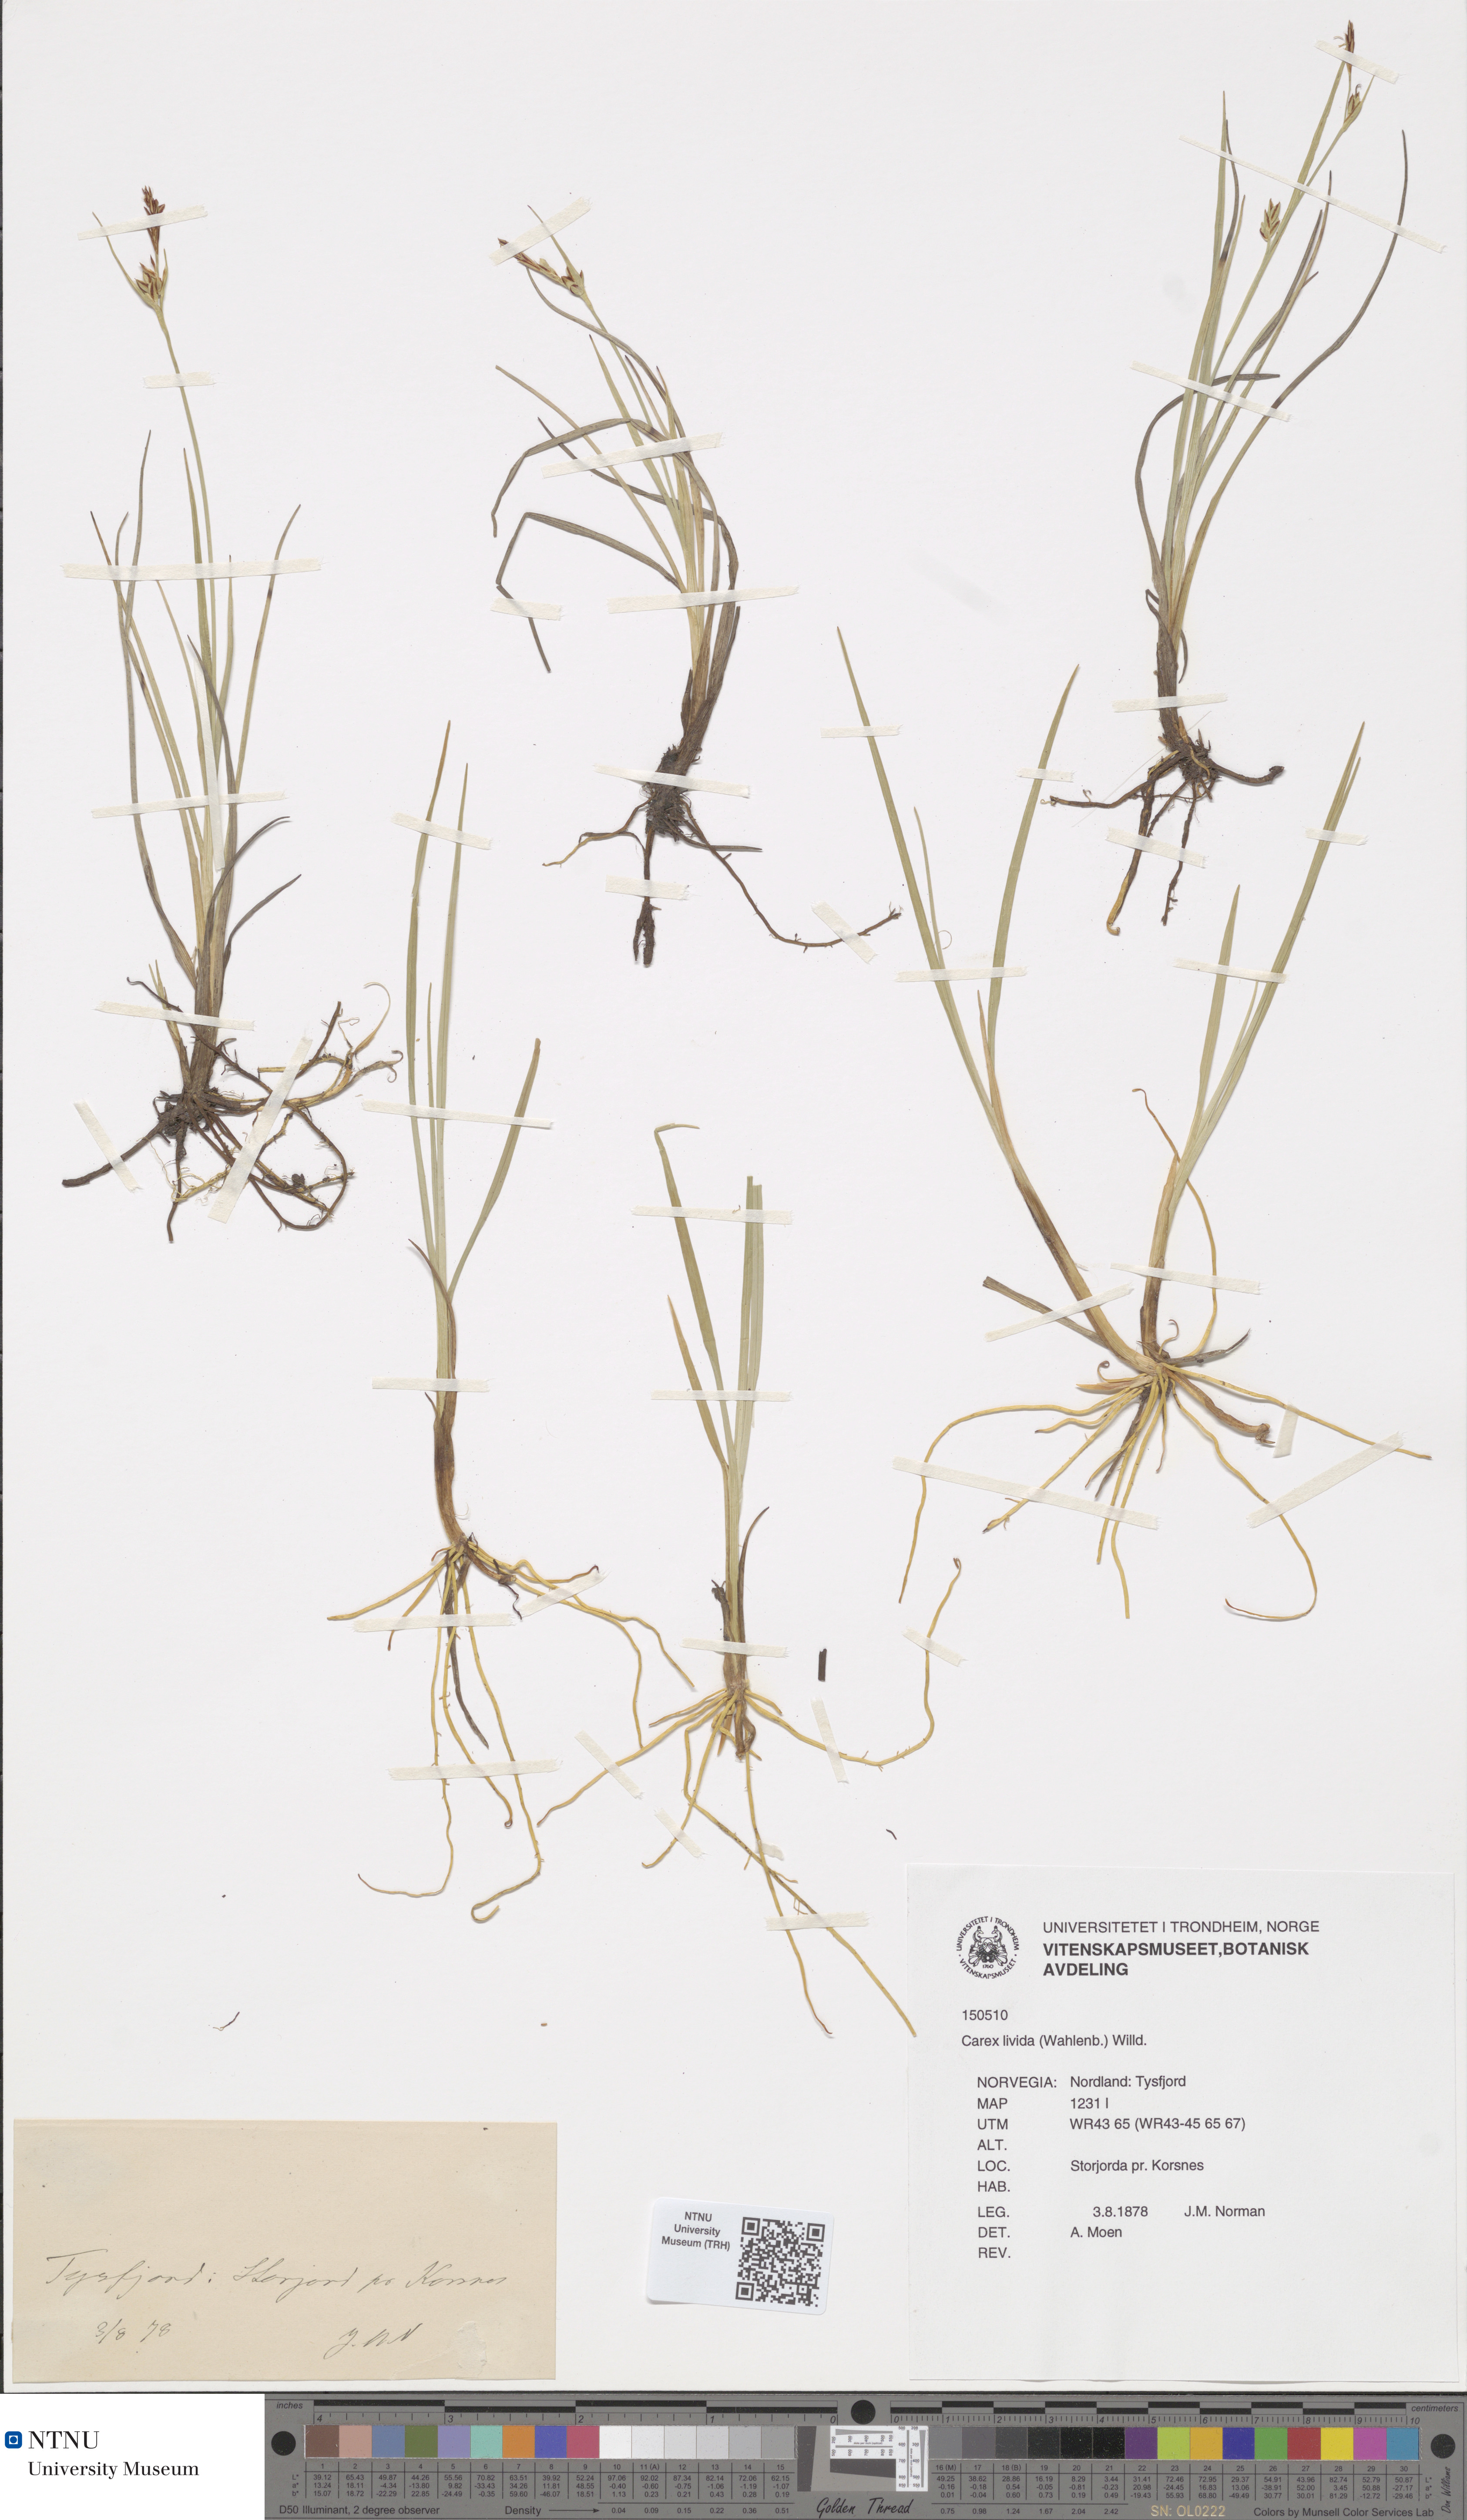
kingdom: Plantae
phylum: Tracheophyta
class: Liliopsida
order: Poales
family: Cyperaceae
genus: Carex
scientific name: Carex livida
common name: Livid sedge
